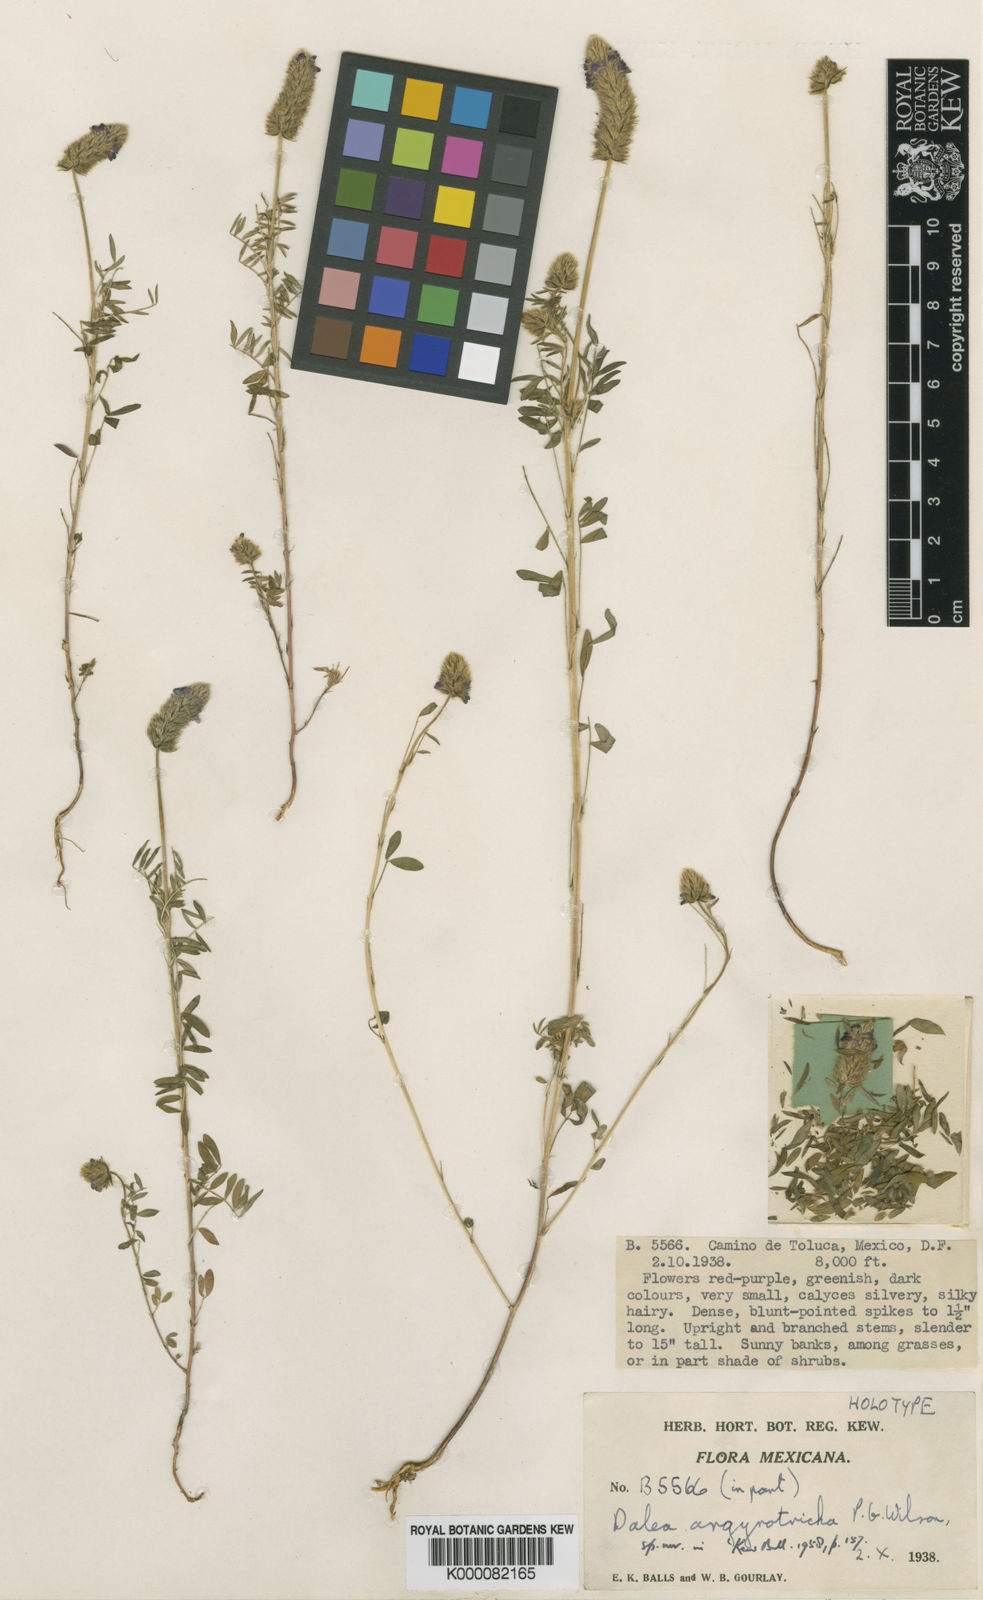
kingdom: Plantae
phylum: Tracheophyta
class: Magnoliopsida
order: Fabales
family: Fabaceae
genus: Dalea
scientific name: Dalea reclinata
